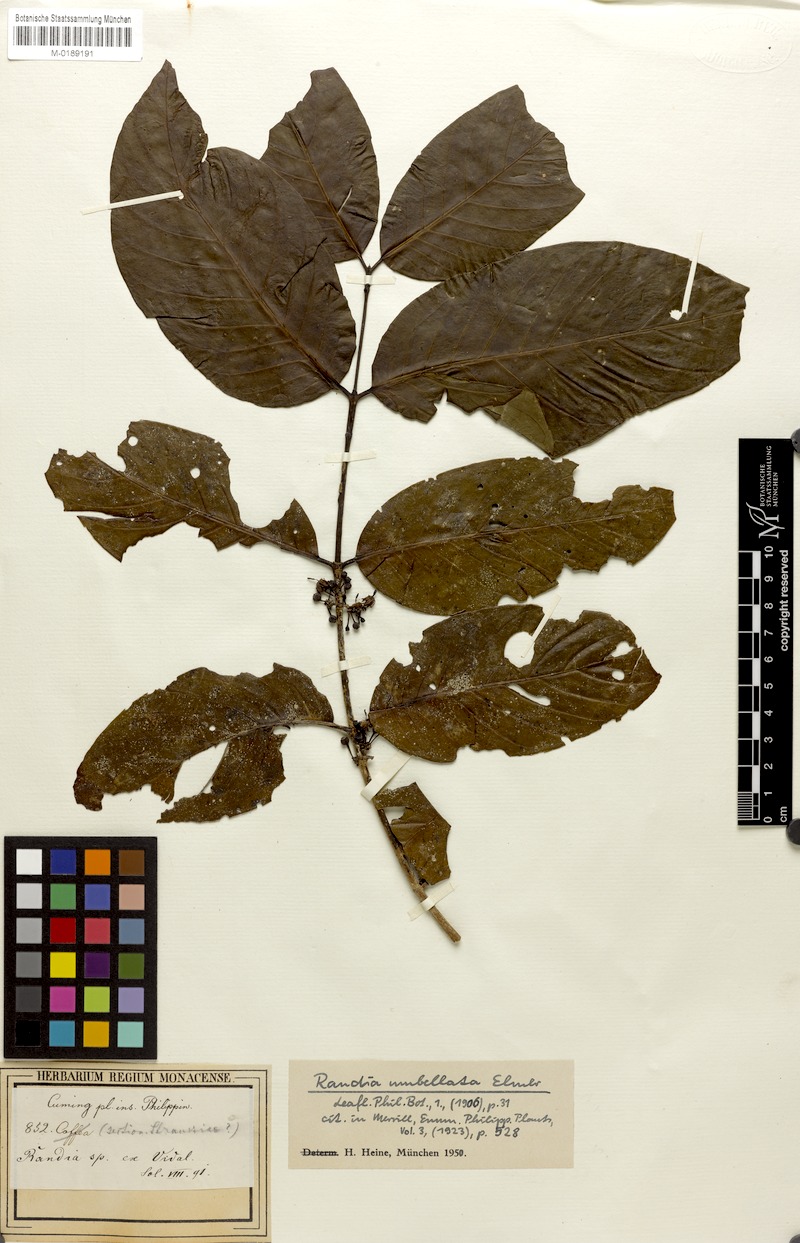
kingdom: Plantae
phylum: Tracheophyta
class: Magnoliopsida
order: Gentianales
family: Rubiaceae
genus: Aidia
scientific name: Aidia acuminata
